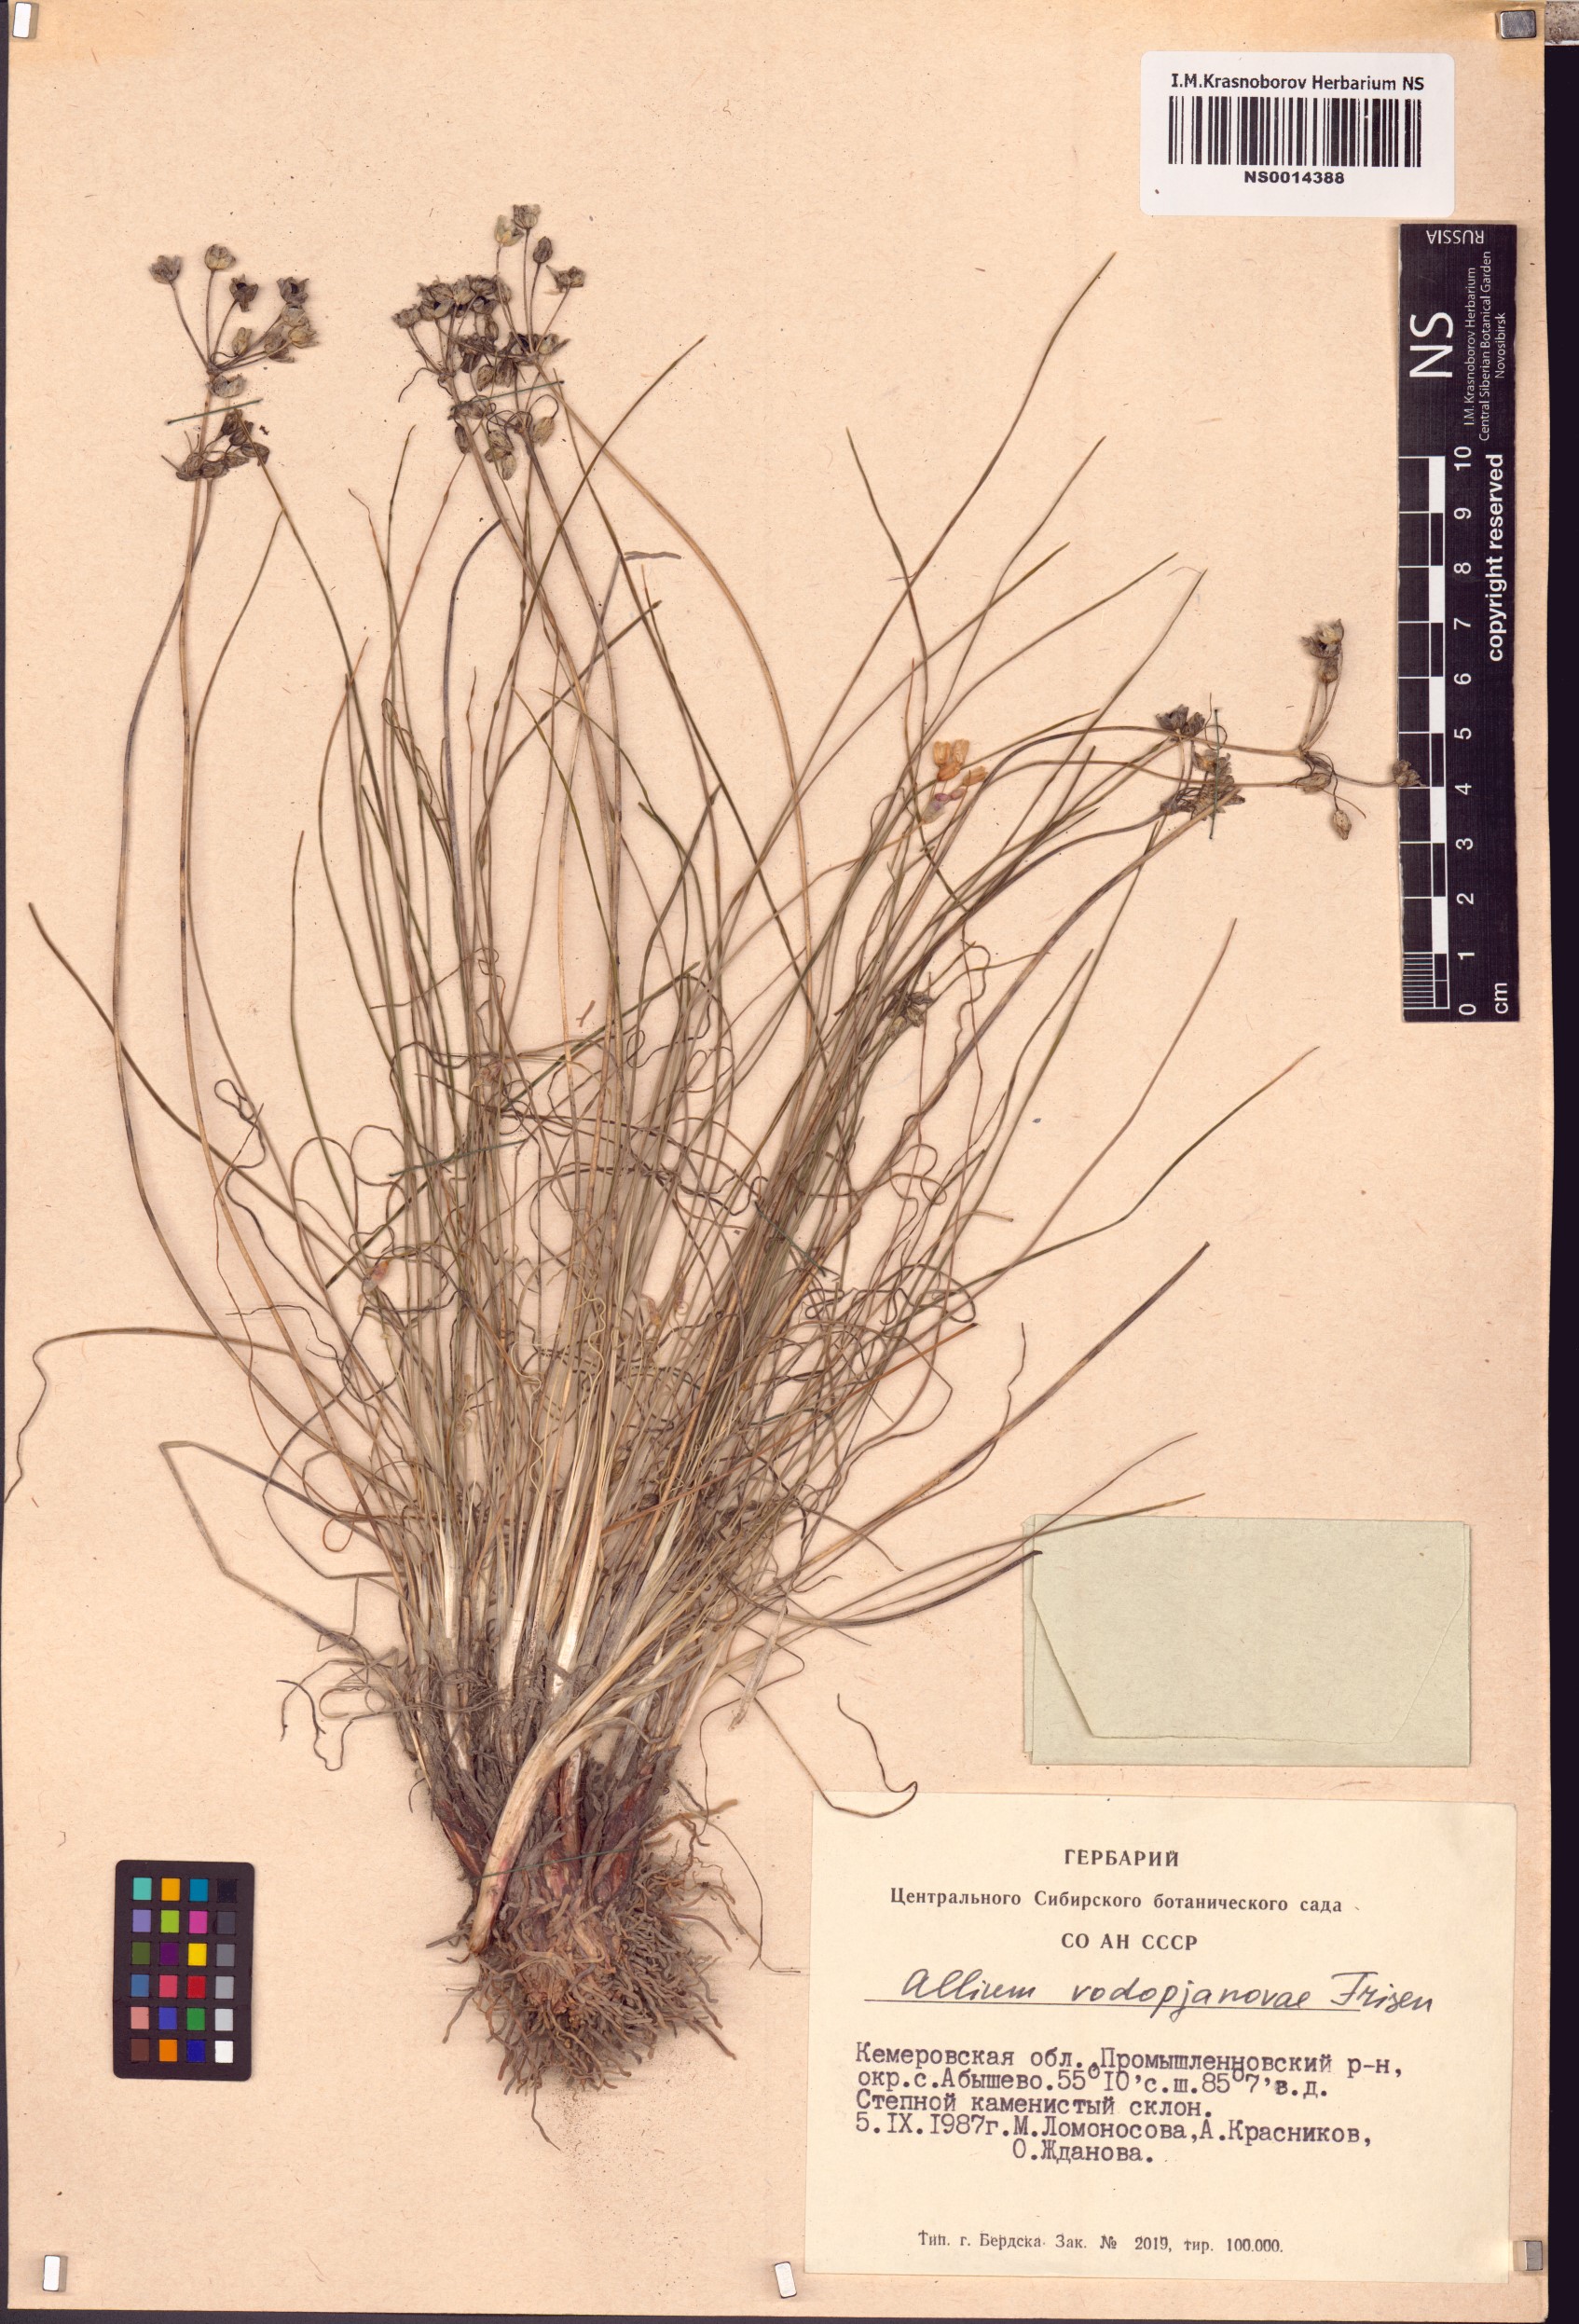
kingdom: Plantae
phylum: Tracheophyta
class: Liliopsida
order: Asparagales
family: Amaryllidaceae
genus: Allium
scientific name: Allium vodopjanovae
